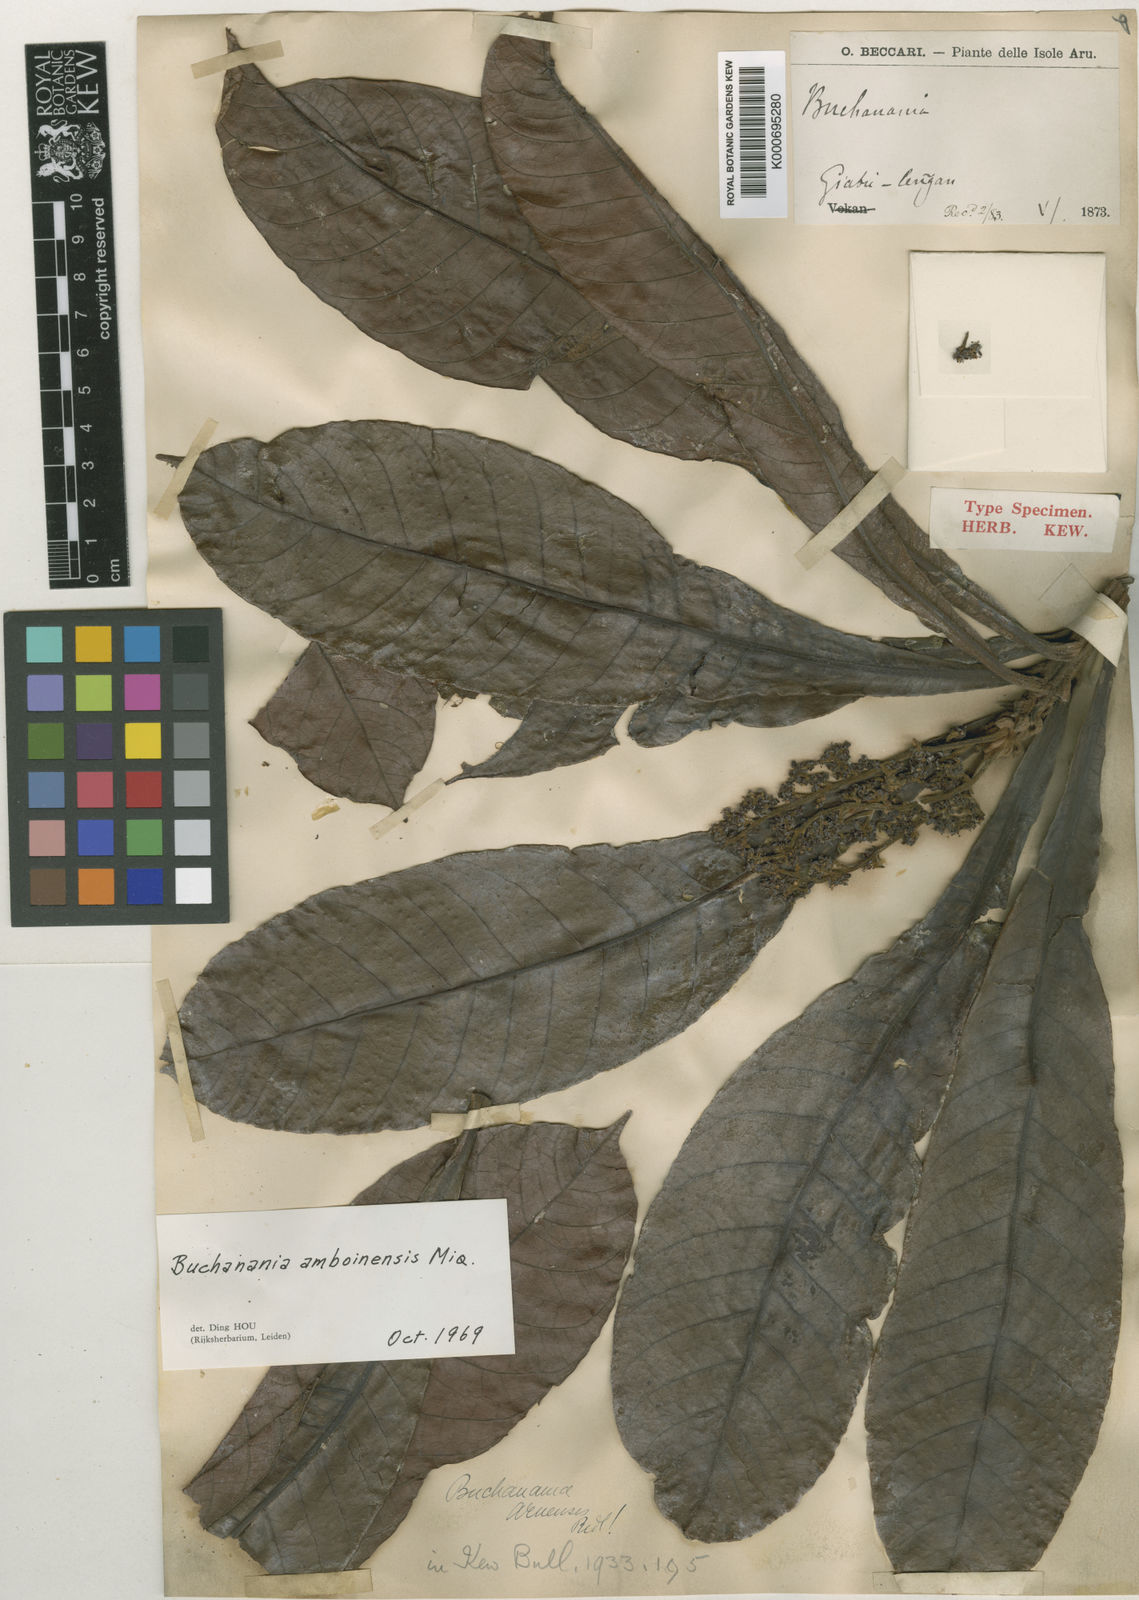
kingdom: Plantae
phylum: Tracheophyta
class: Magnoliopsida
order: Sapindales
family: Anacardiaceae
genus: Buchanania
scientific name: Buchanania amboinensis
